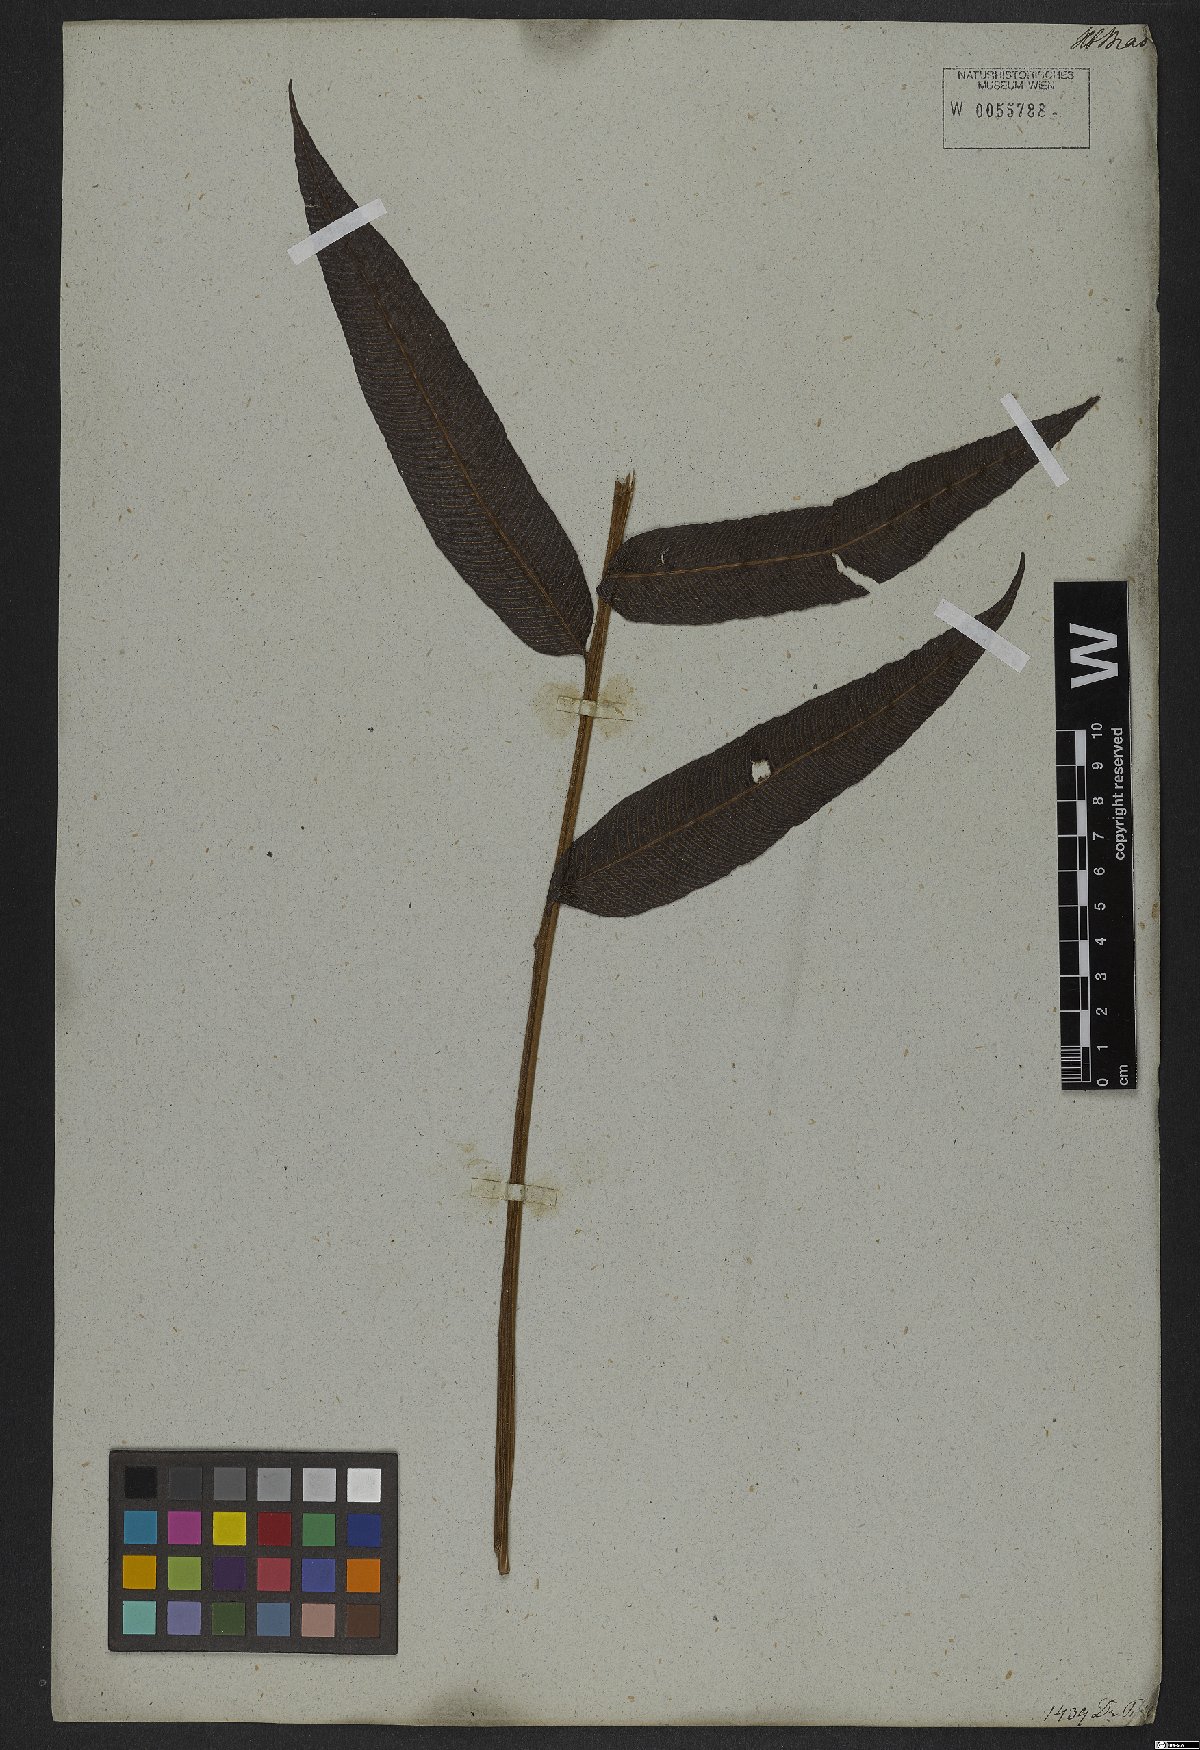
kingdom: Plantae
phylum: Tracheophyta
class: Polypodiopsida
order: Polypodiales
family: Thelypteridaceae
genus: Meniscium
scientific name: Meniscium reticulatum
